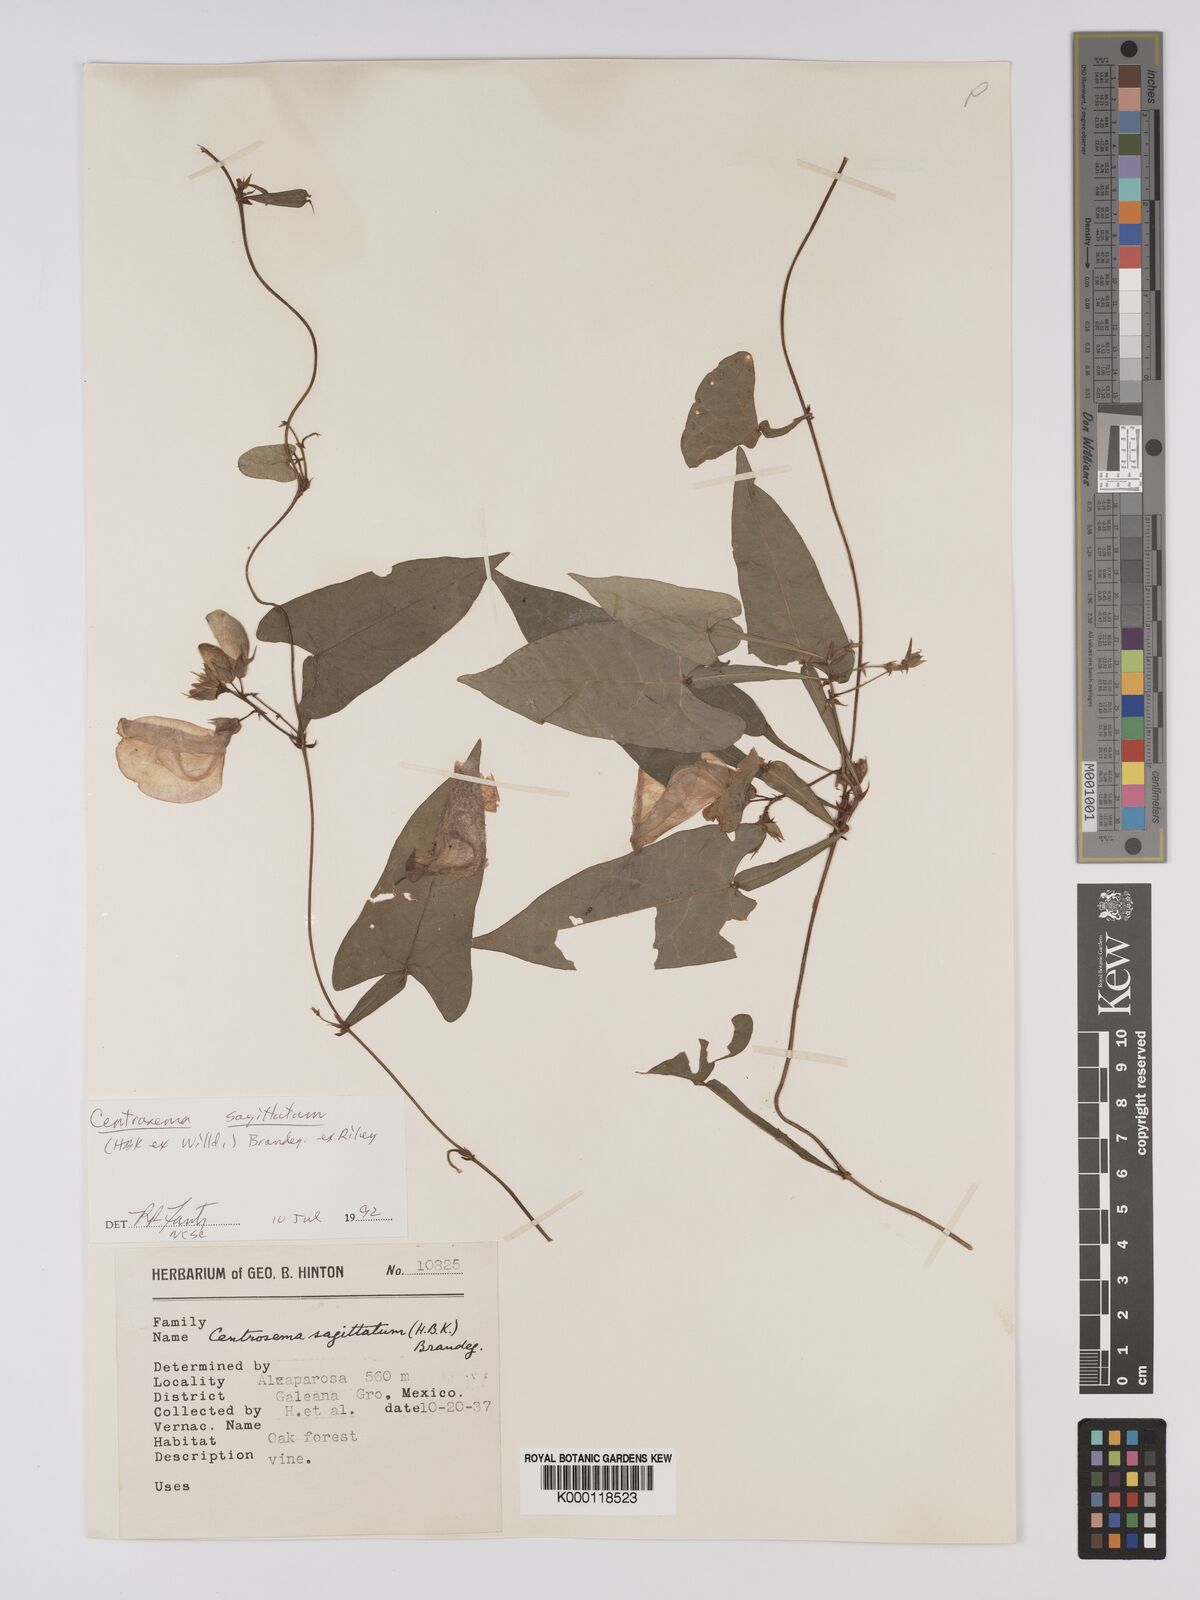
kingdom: Plantae
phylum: Tracheophyta
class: Magnoliopsida
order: Fabales
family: Fabaceae
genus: Centrosema
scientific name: Centrosema sagittatum
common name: Arrowleaf butterfly pea
